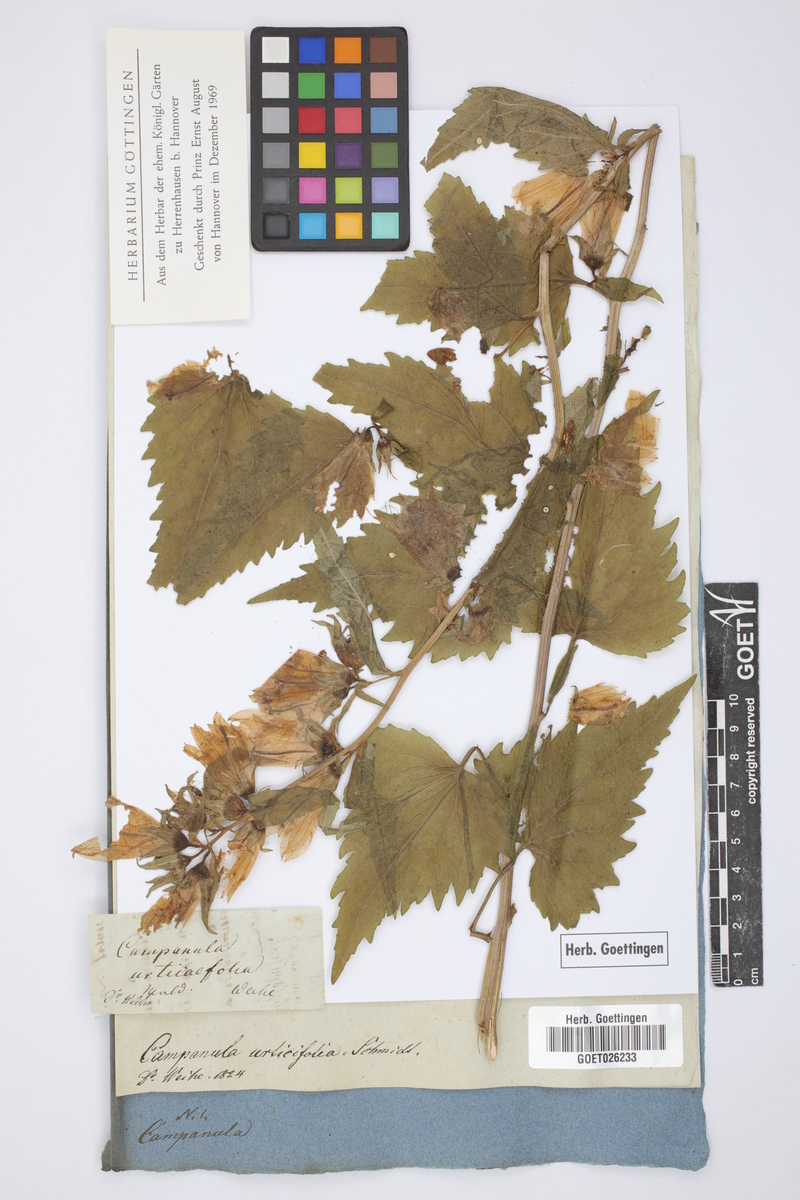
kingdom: Plantae
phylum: Tracheophyta
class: Magnoliopsida
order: Asterales
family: Campanulaceae
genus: Campanula
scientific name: Campanula trachelium
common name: Nettle-leaved bellflower
